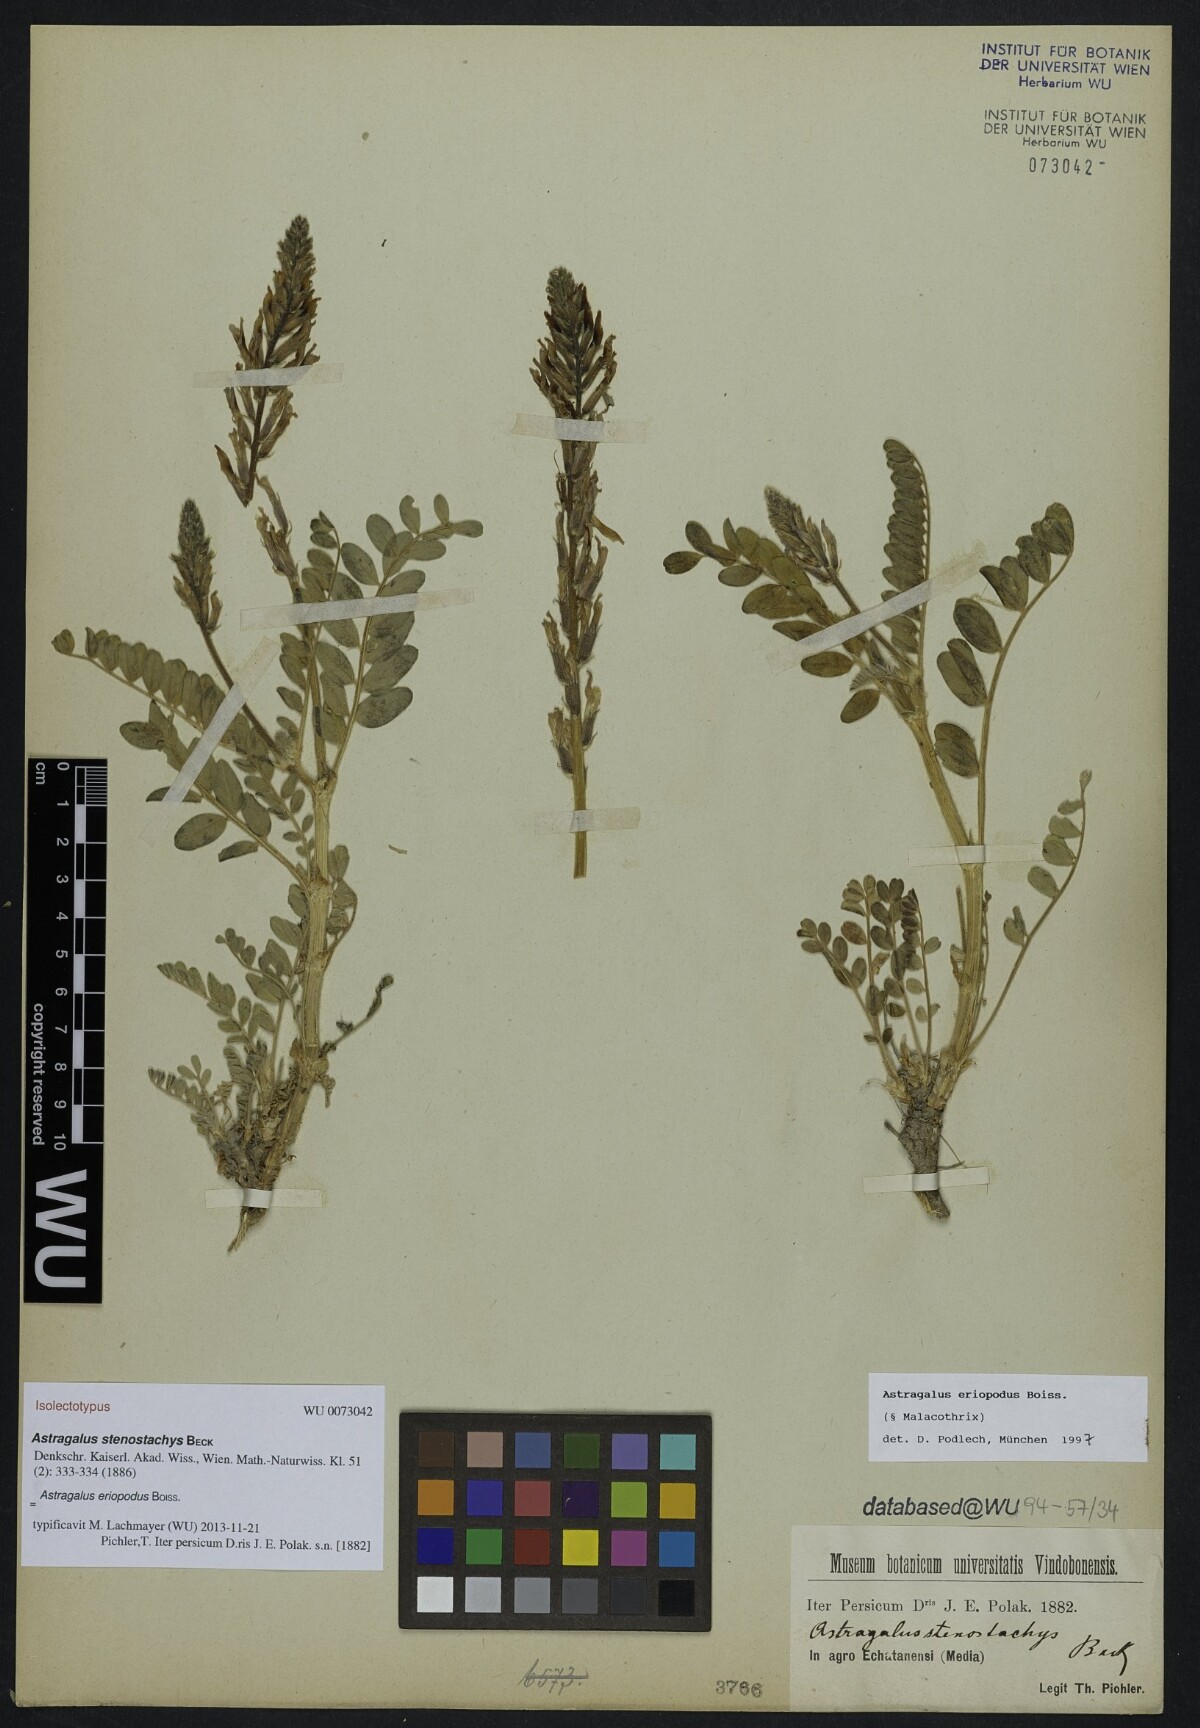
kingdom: Plantae
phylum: Tracheophyta
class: Magnoliopsida
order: Fabales
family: Fabaceae
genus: Astragalus
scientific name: Astragalus eriopodus
